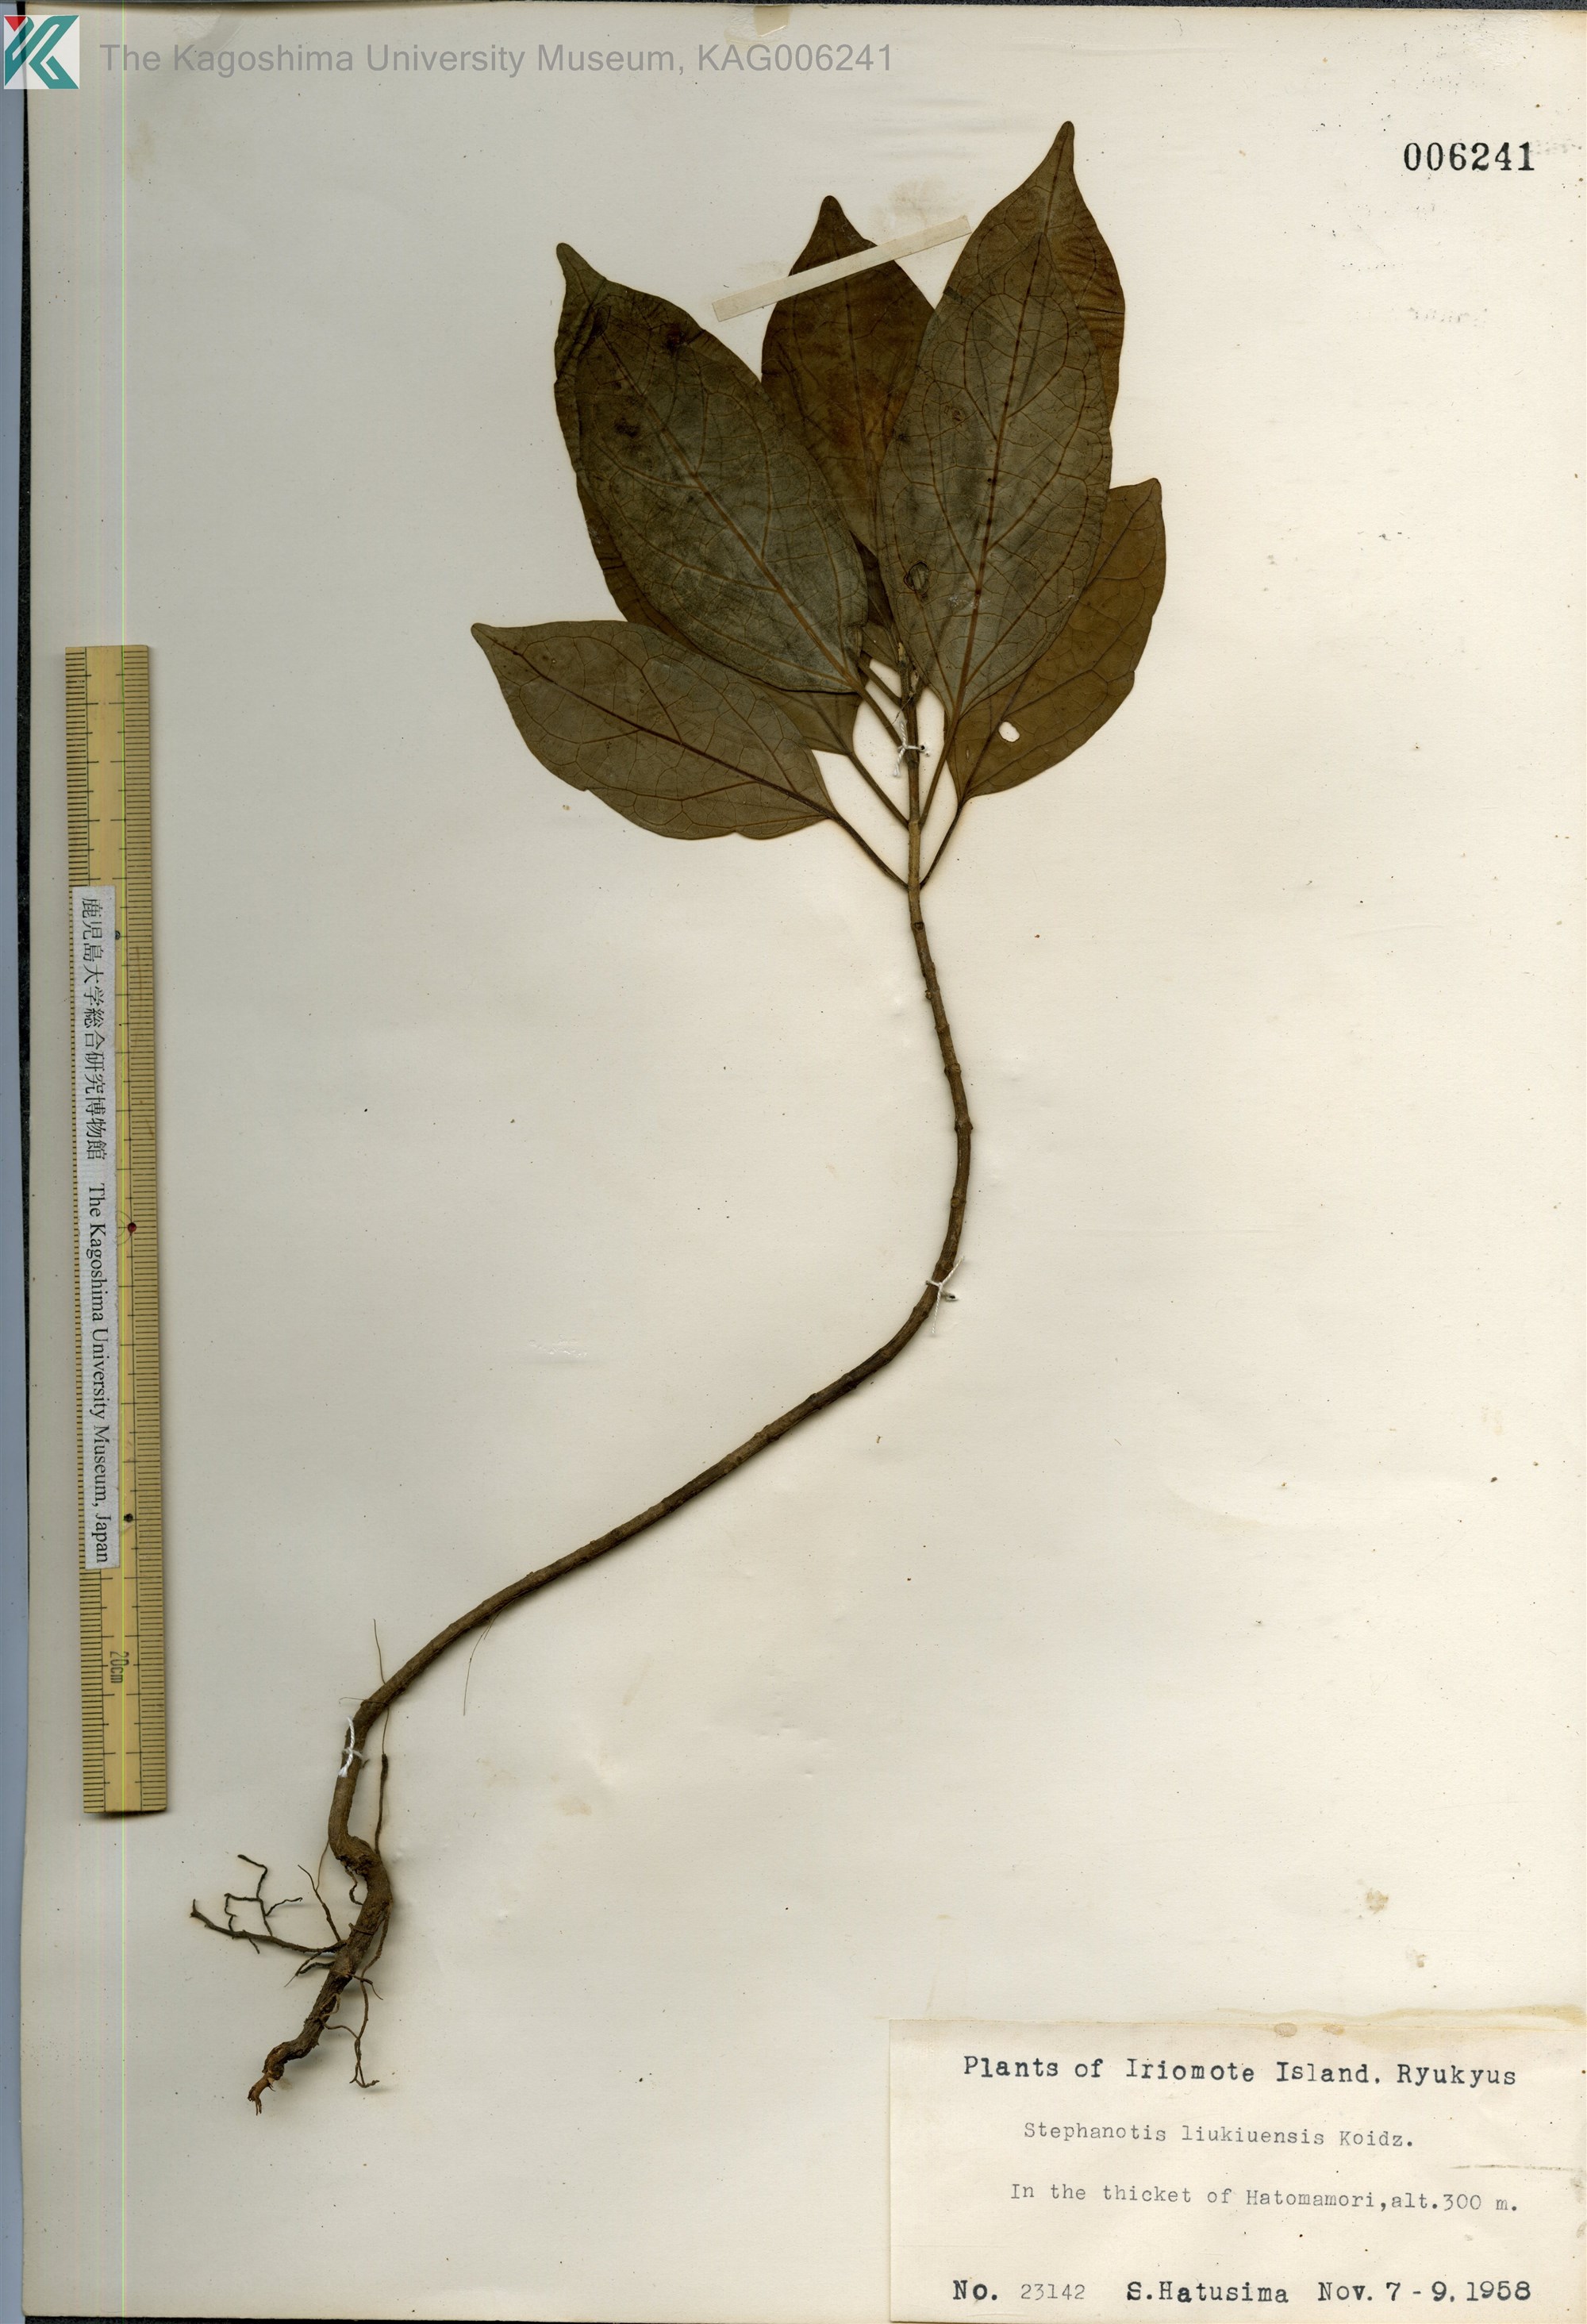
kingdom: Plantae
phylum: Tracheophyta
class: Magnoliopsida
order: Gentianales
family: Apocynaceae
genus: Jasminanthes
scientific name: Jasminanthes mucronata
